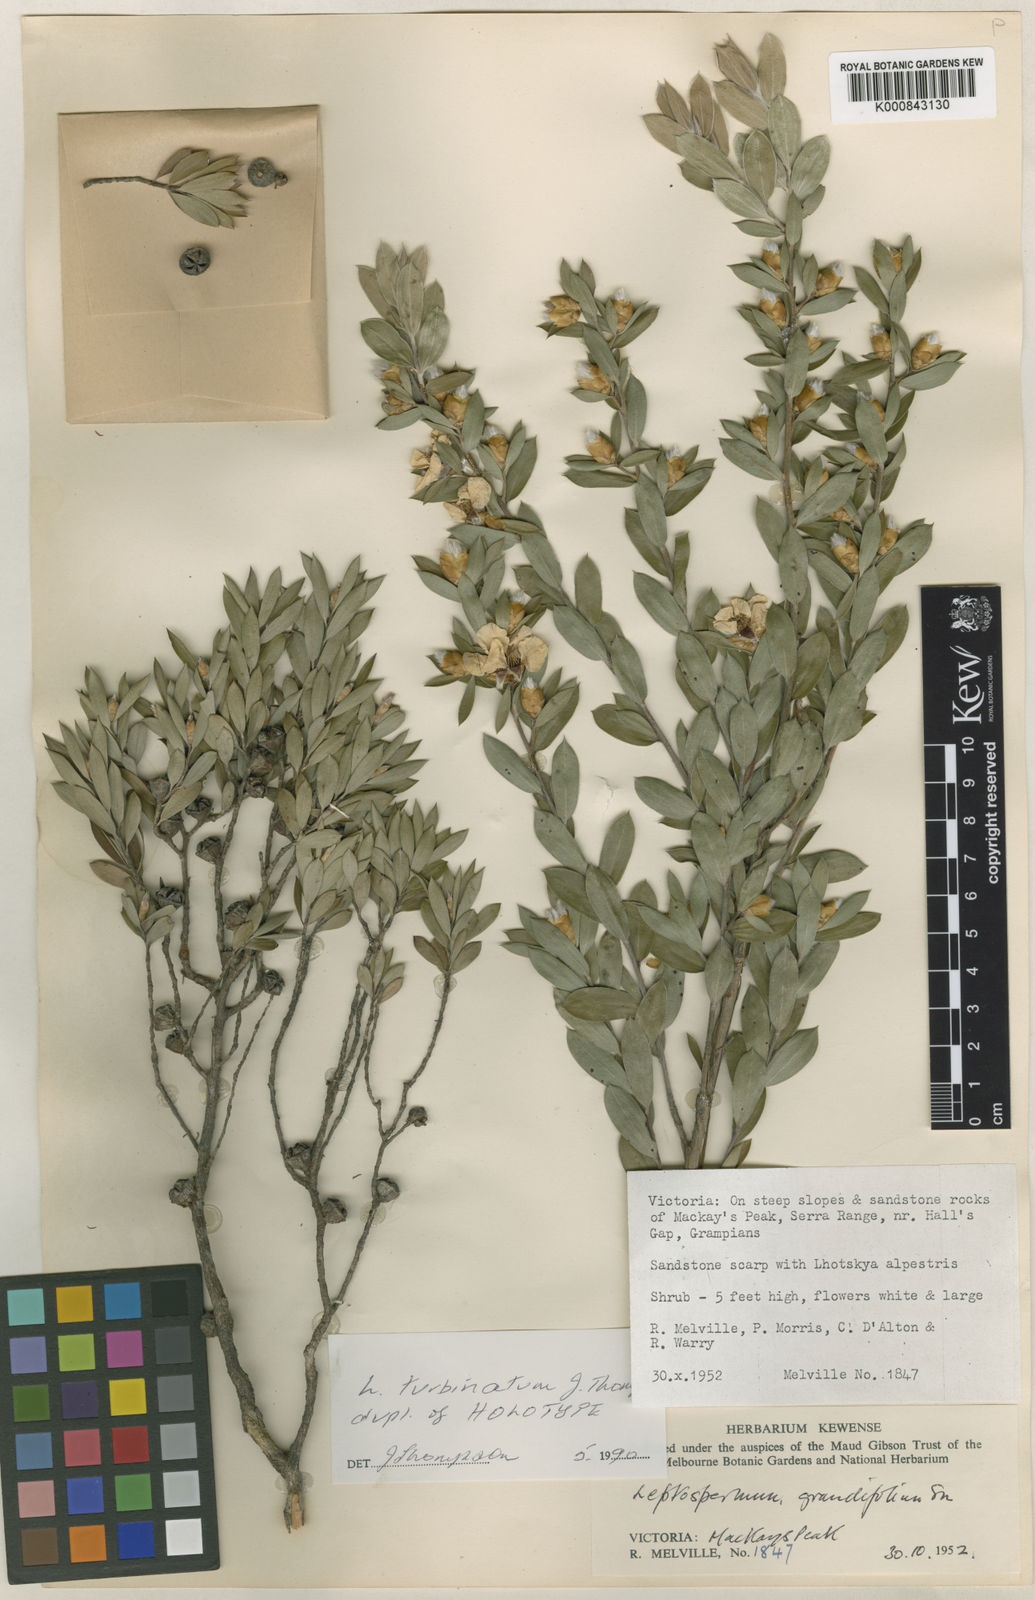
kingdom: Plantae
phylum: Tracheophyta
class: Magnoliopsida
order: Myrtales
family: Myrtaceae
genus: Leptospermum
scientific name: Leptospermum nitidum
